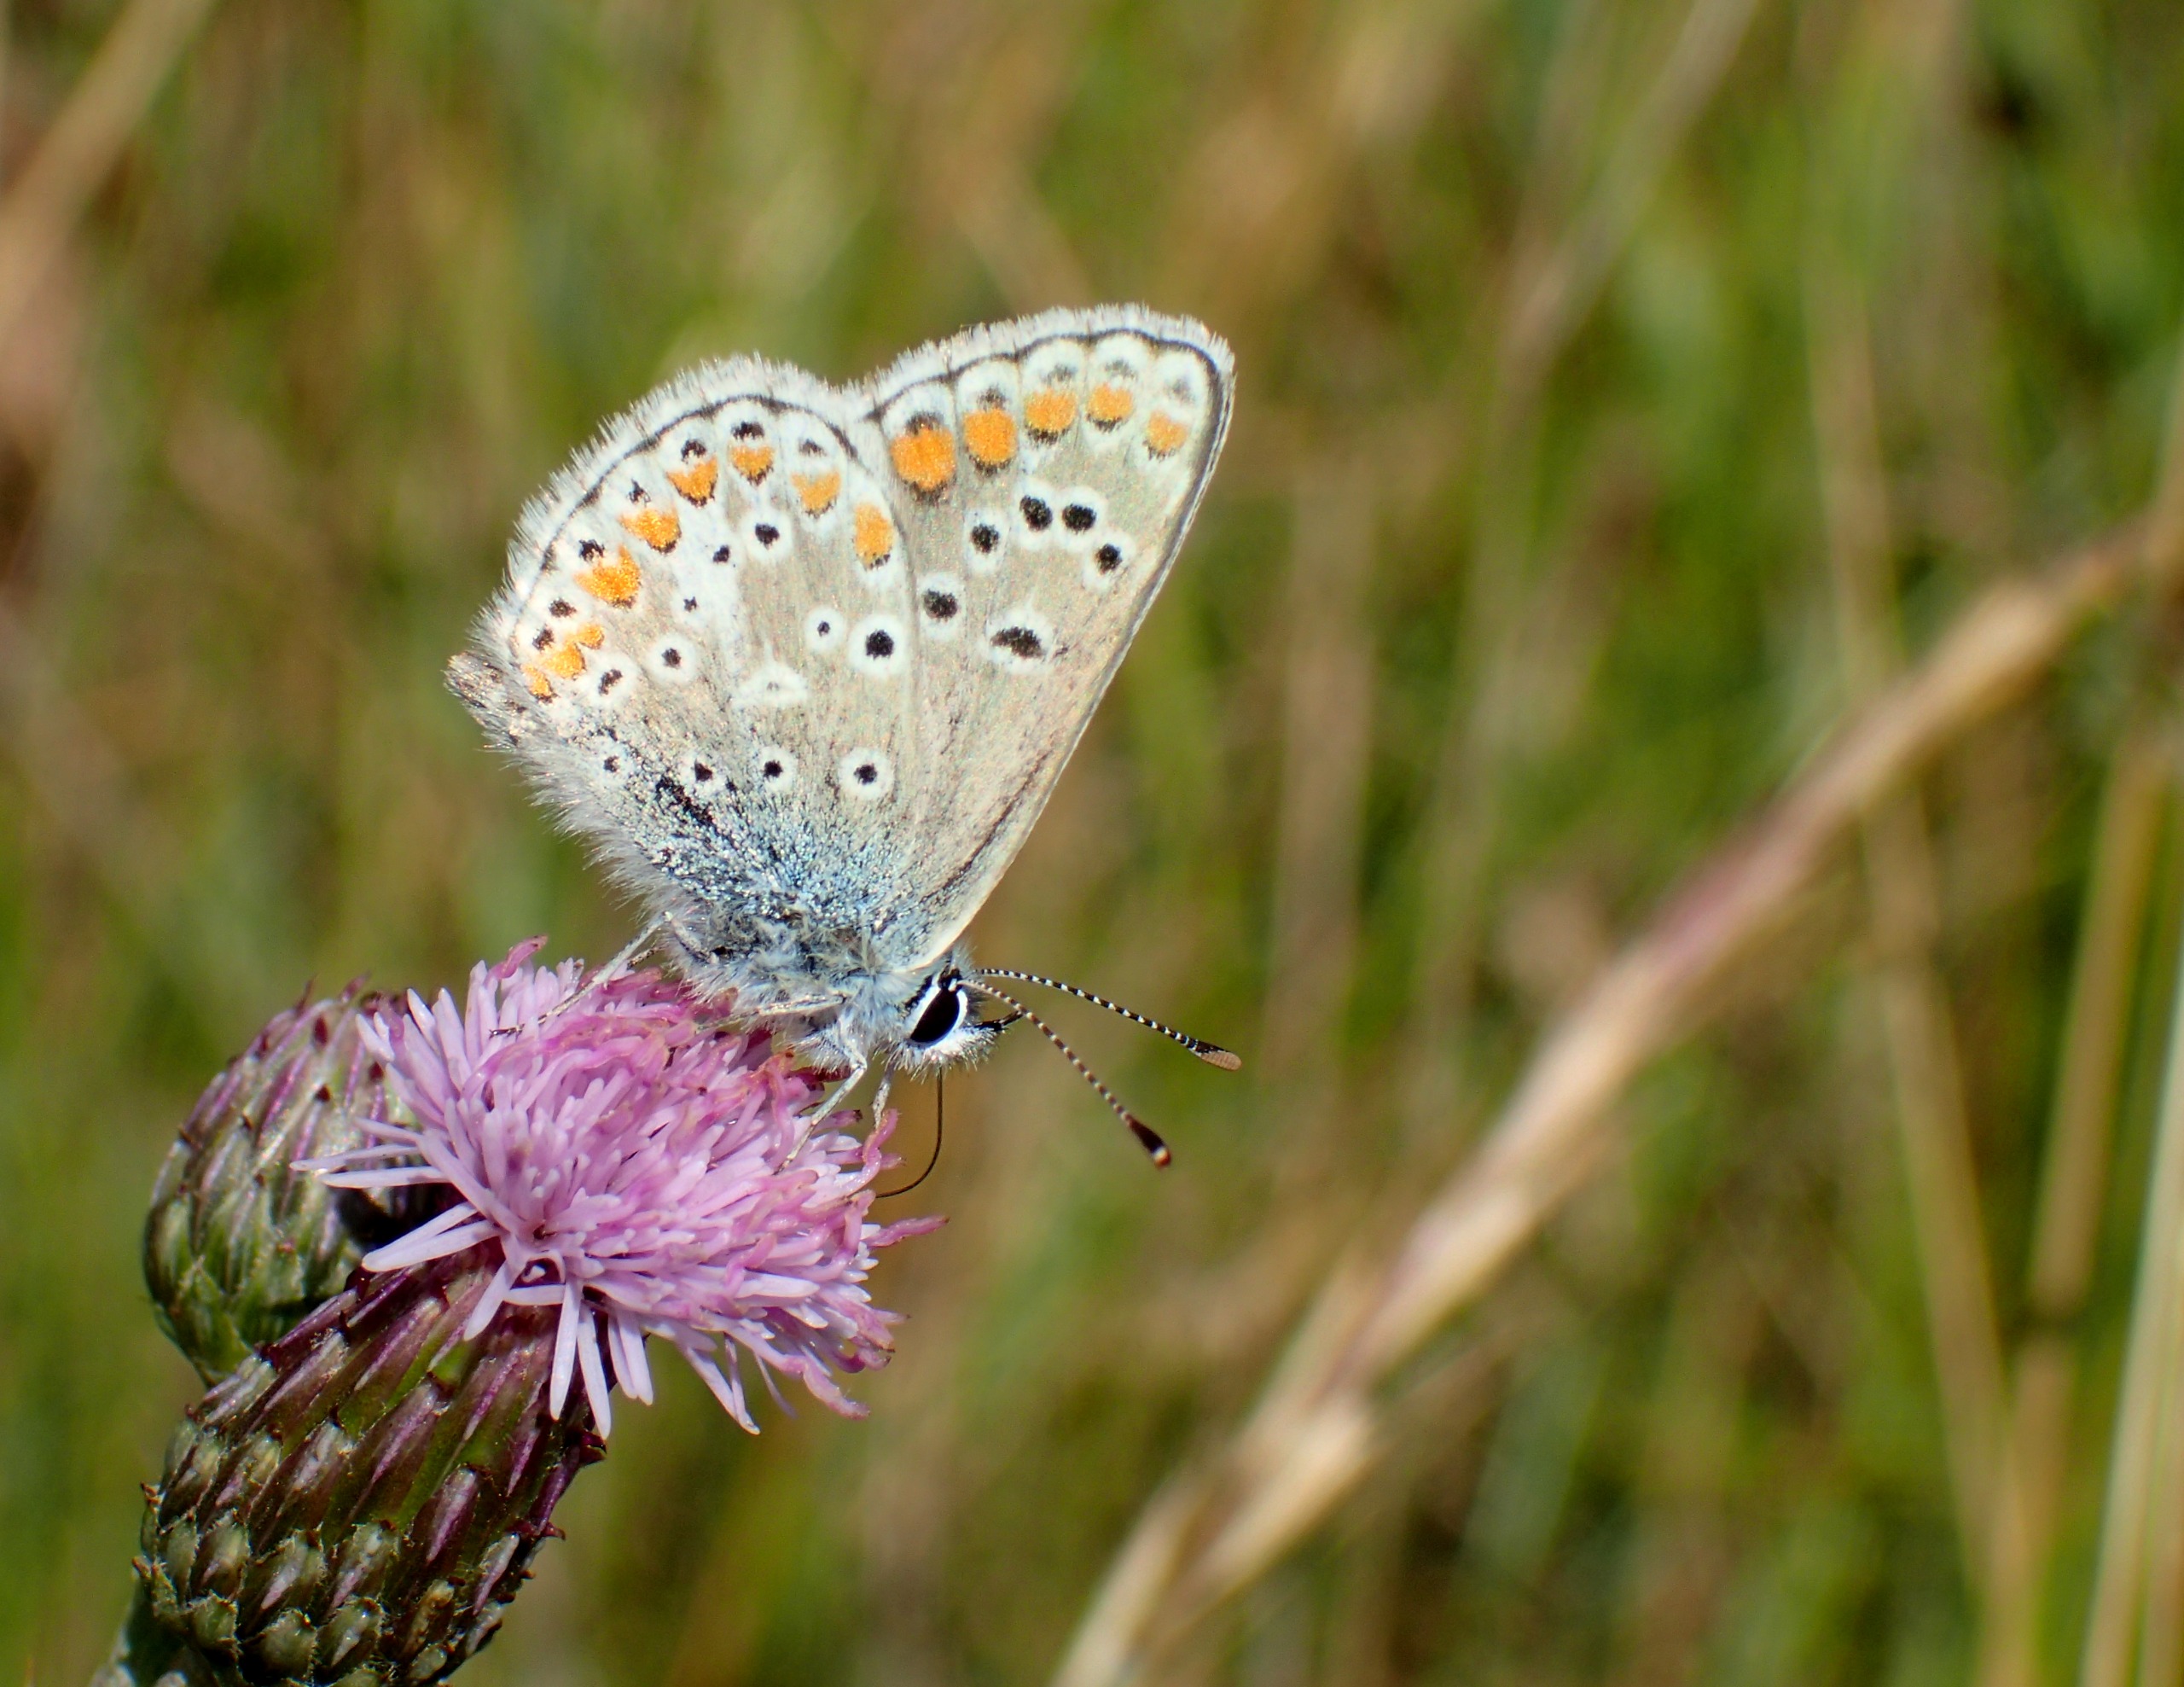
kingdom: Animalia
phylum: Arthropoda
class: Insecta
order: Lepidoptera
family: Lycaenidae
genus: Aricia
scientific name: Aricia agestis
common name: Rødplettet blåfugl
